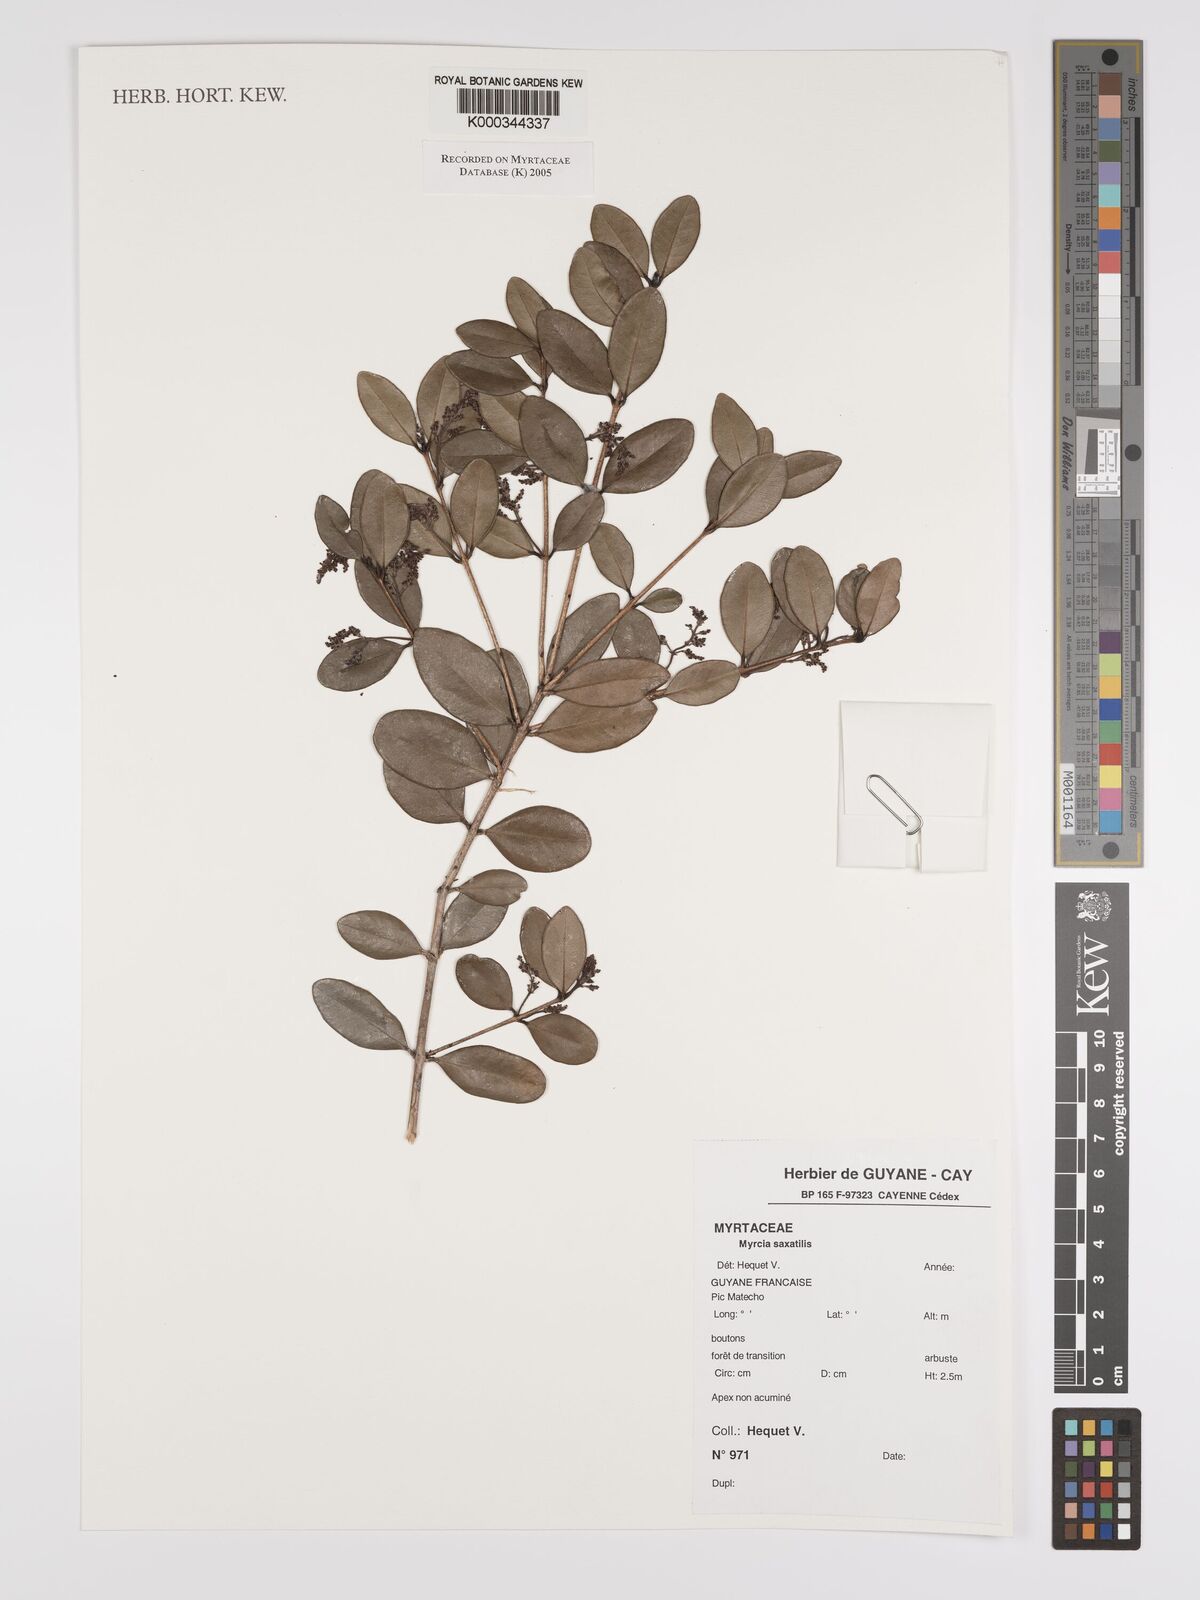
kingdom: Plantae
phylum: Tracheophyta
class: Magnoliopsida
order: Myrtales
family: Myrtaceae
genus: Myrcia
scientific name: Myrcia saxatilis
